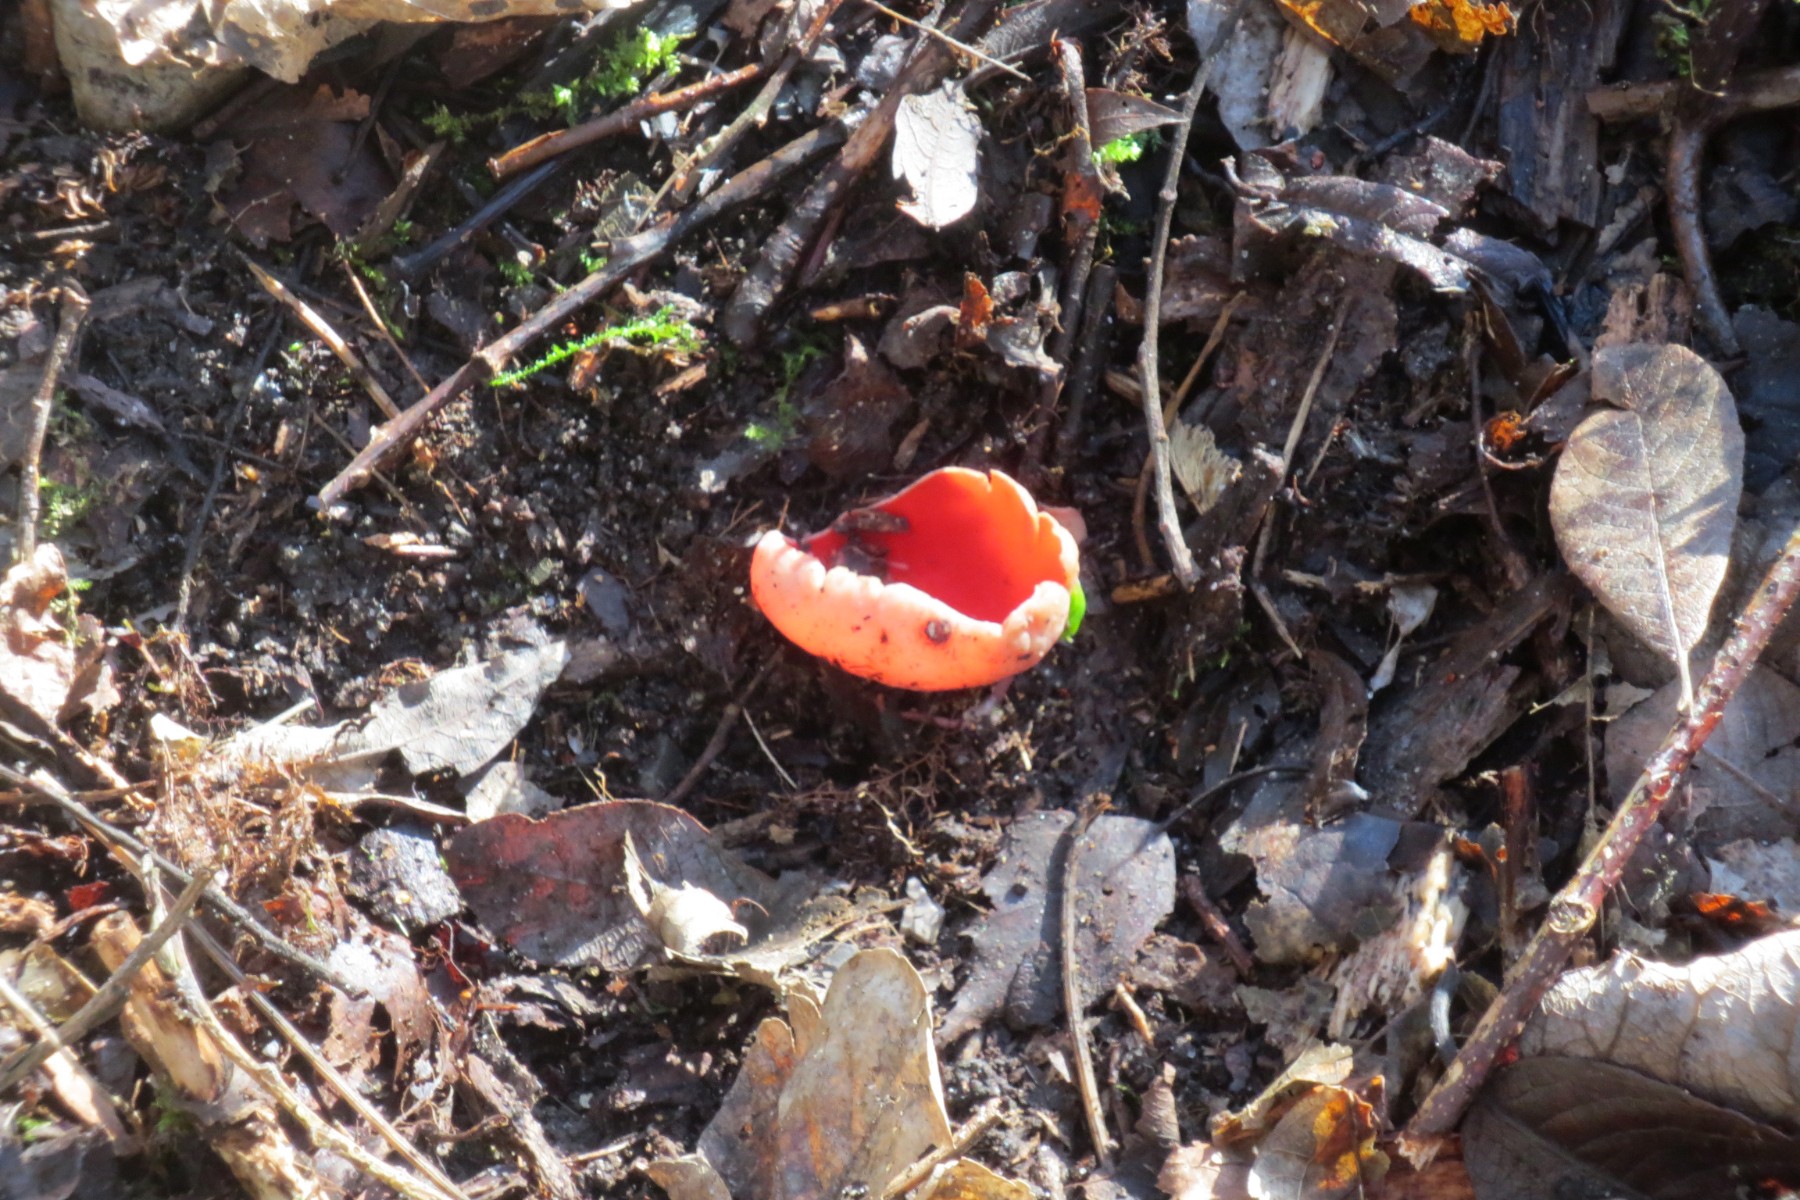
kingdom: Fungi
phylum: Ascomycota
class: Pezizomycetes
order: Pezizales
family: Sarcoscyphaceae
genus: Sarcoscypha
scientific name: Sarcoscypha austriaca
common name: krølhåret pragtbæger
